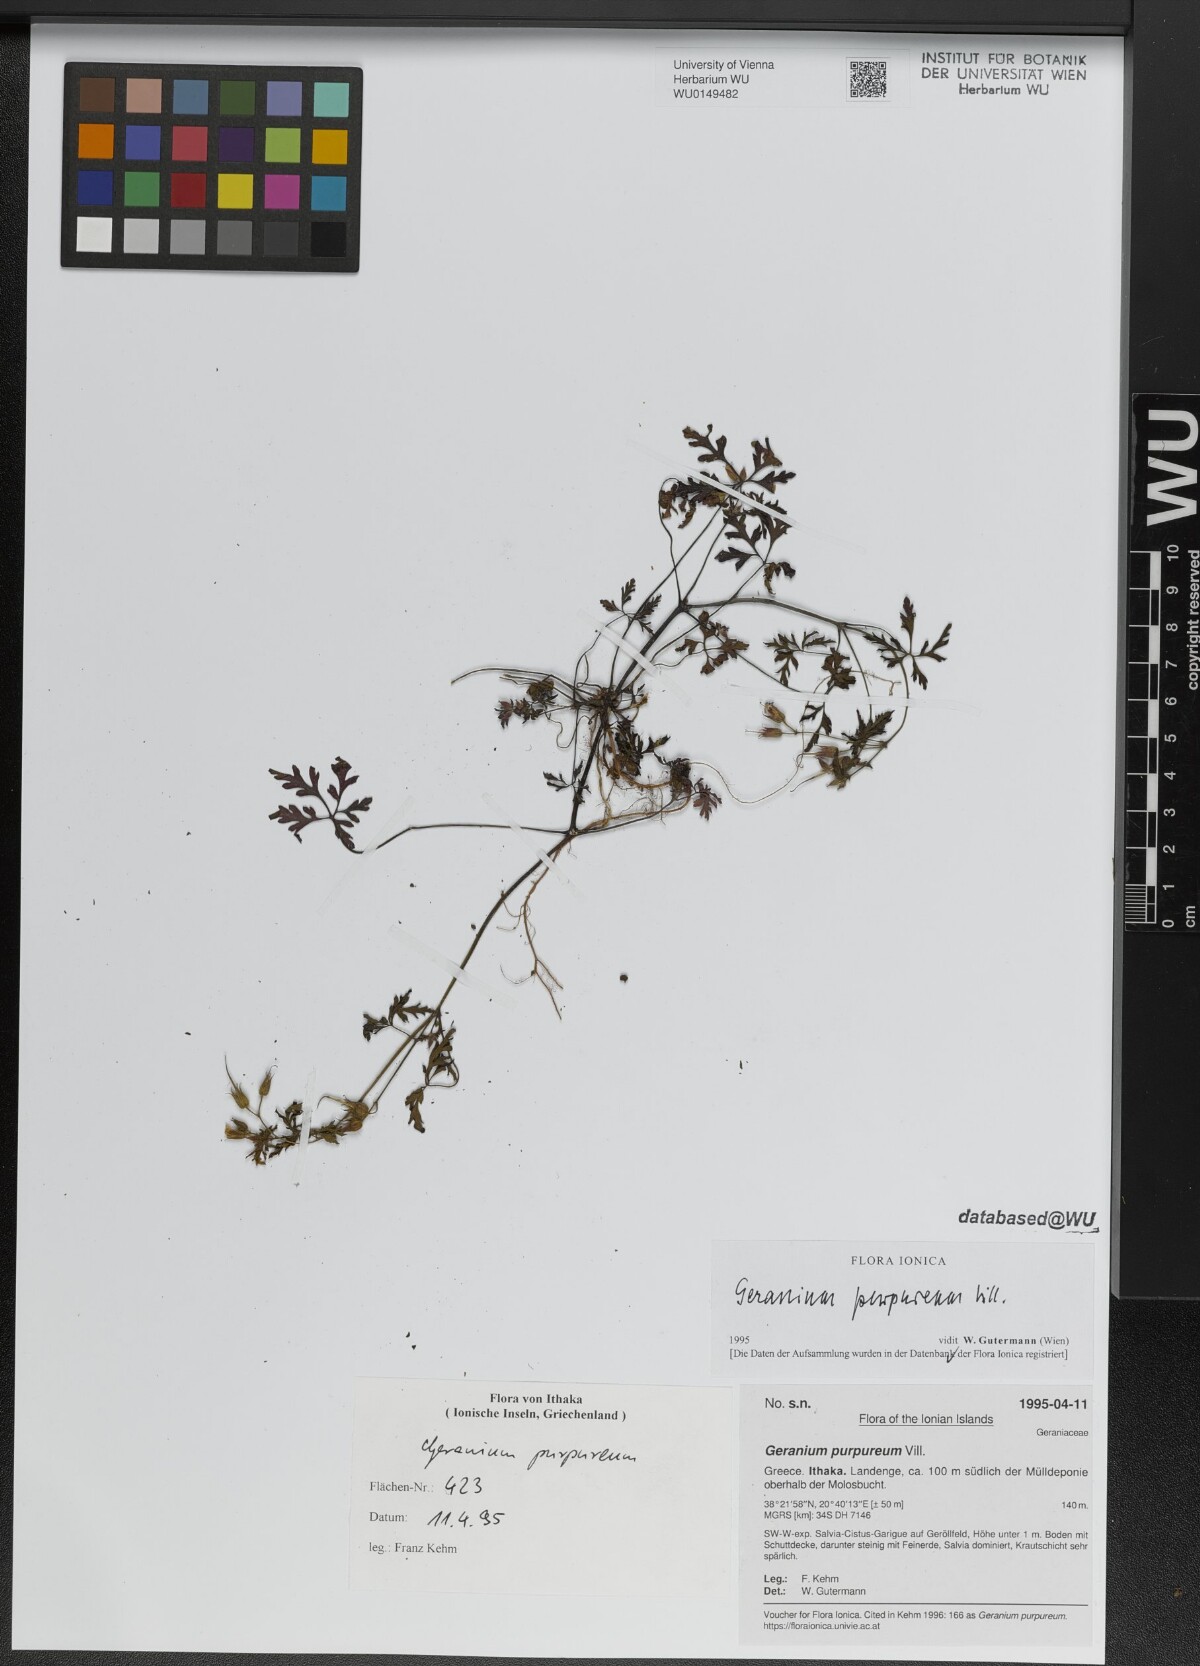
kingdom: Plantae
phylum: Tracheophyta
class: Magnoliopsida
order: Geraniales
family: Geraniaceae
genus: Geranium
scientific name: Geranium purpureum
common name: Little-robin
